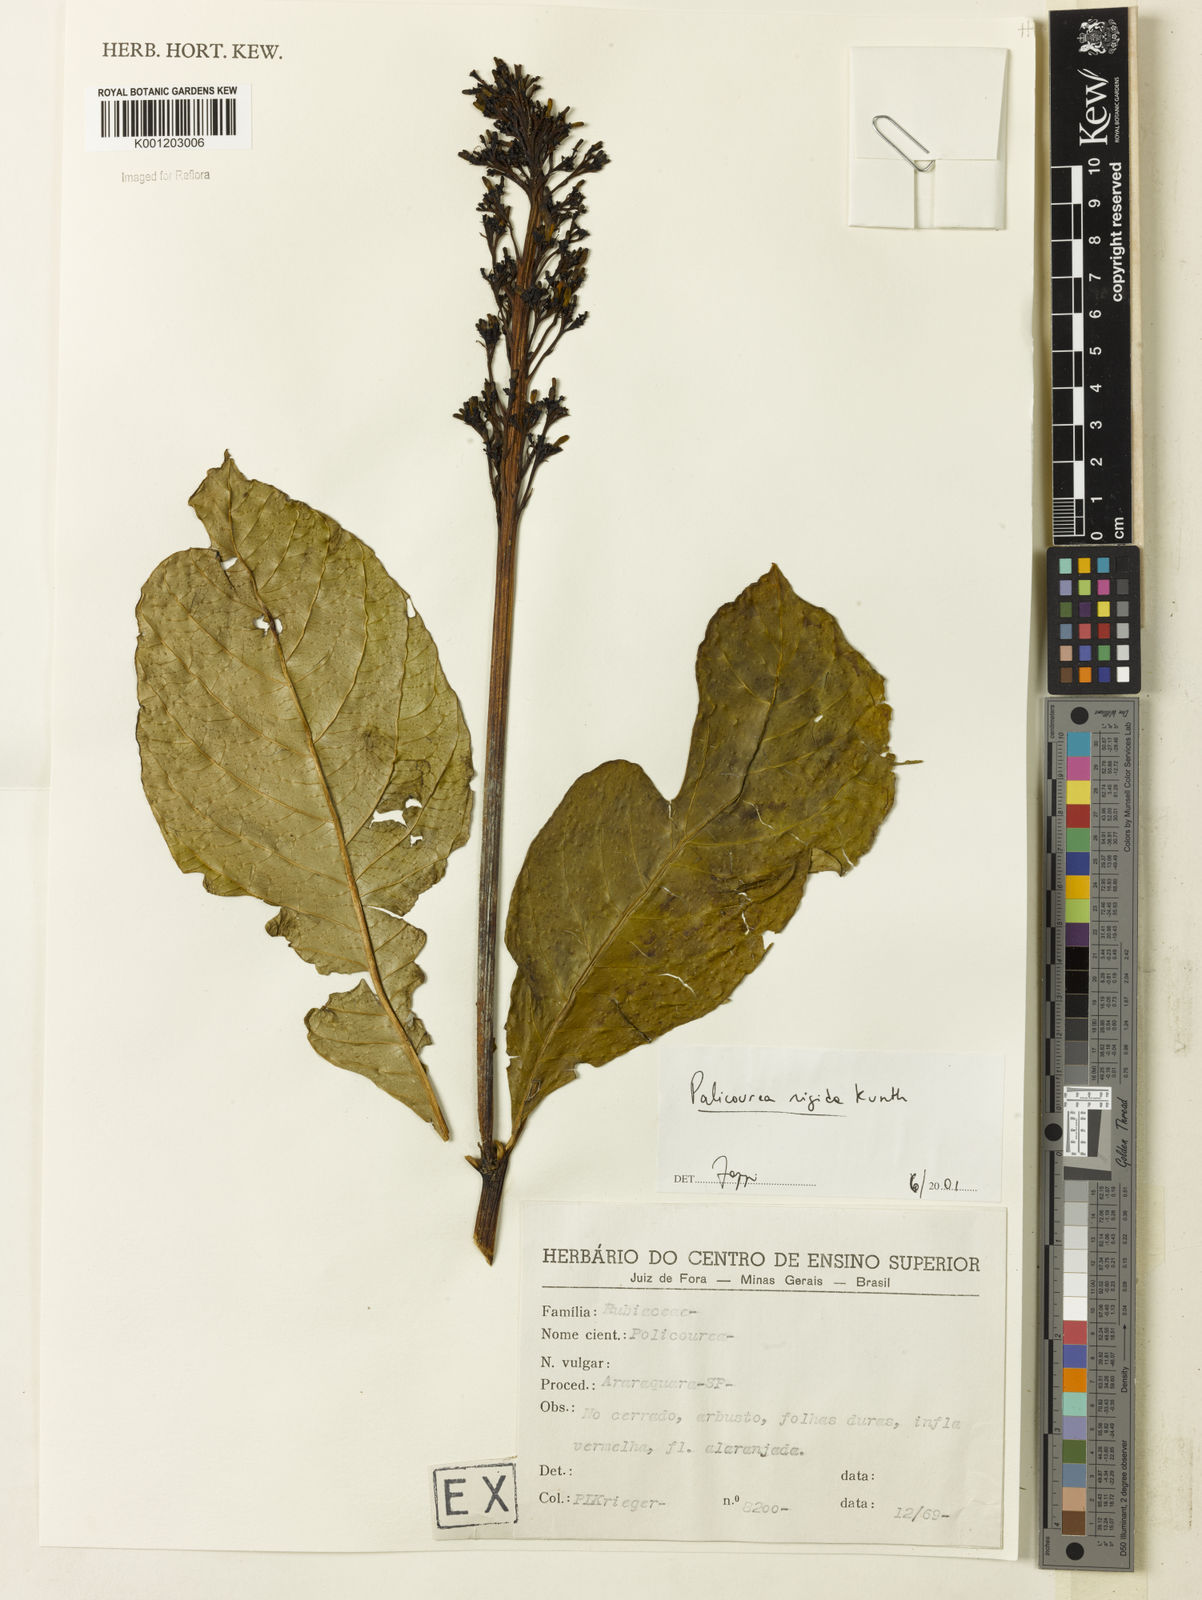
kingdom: Plantae
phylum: Tracheophyta
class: Magnoliopsida
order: Gentianales
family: Rubiaceae
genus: Palicourea
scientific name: Palicourea marcgravii
